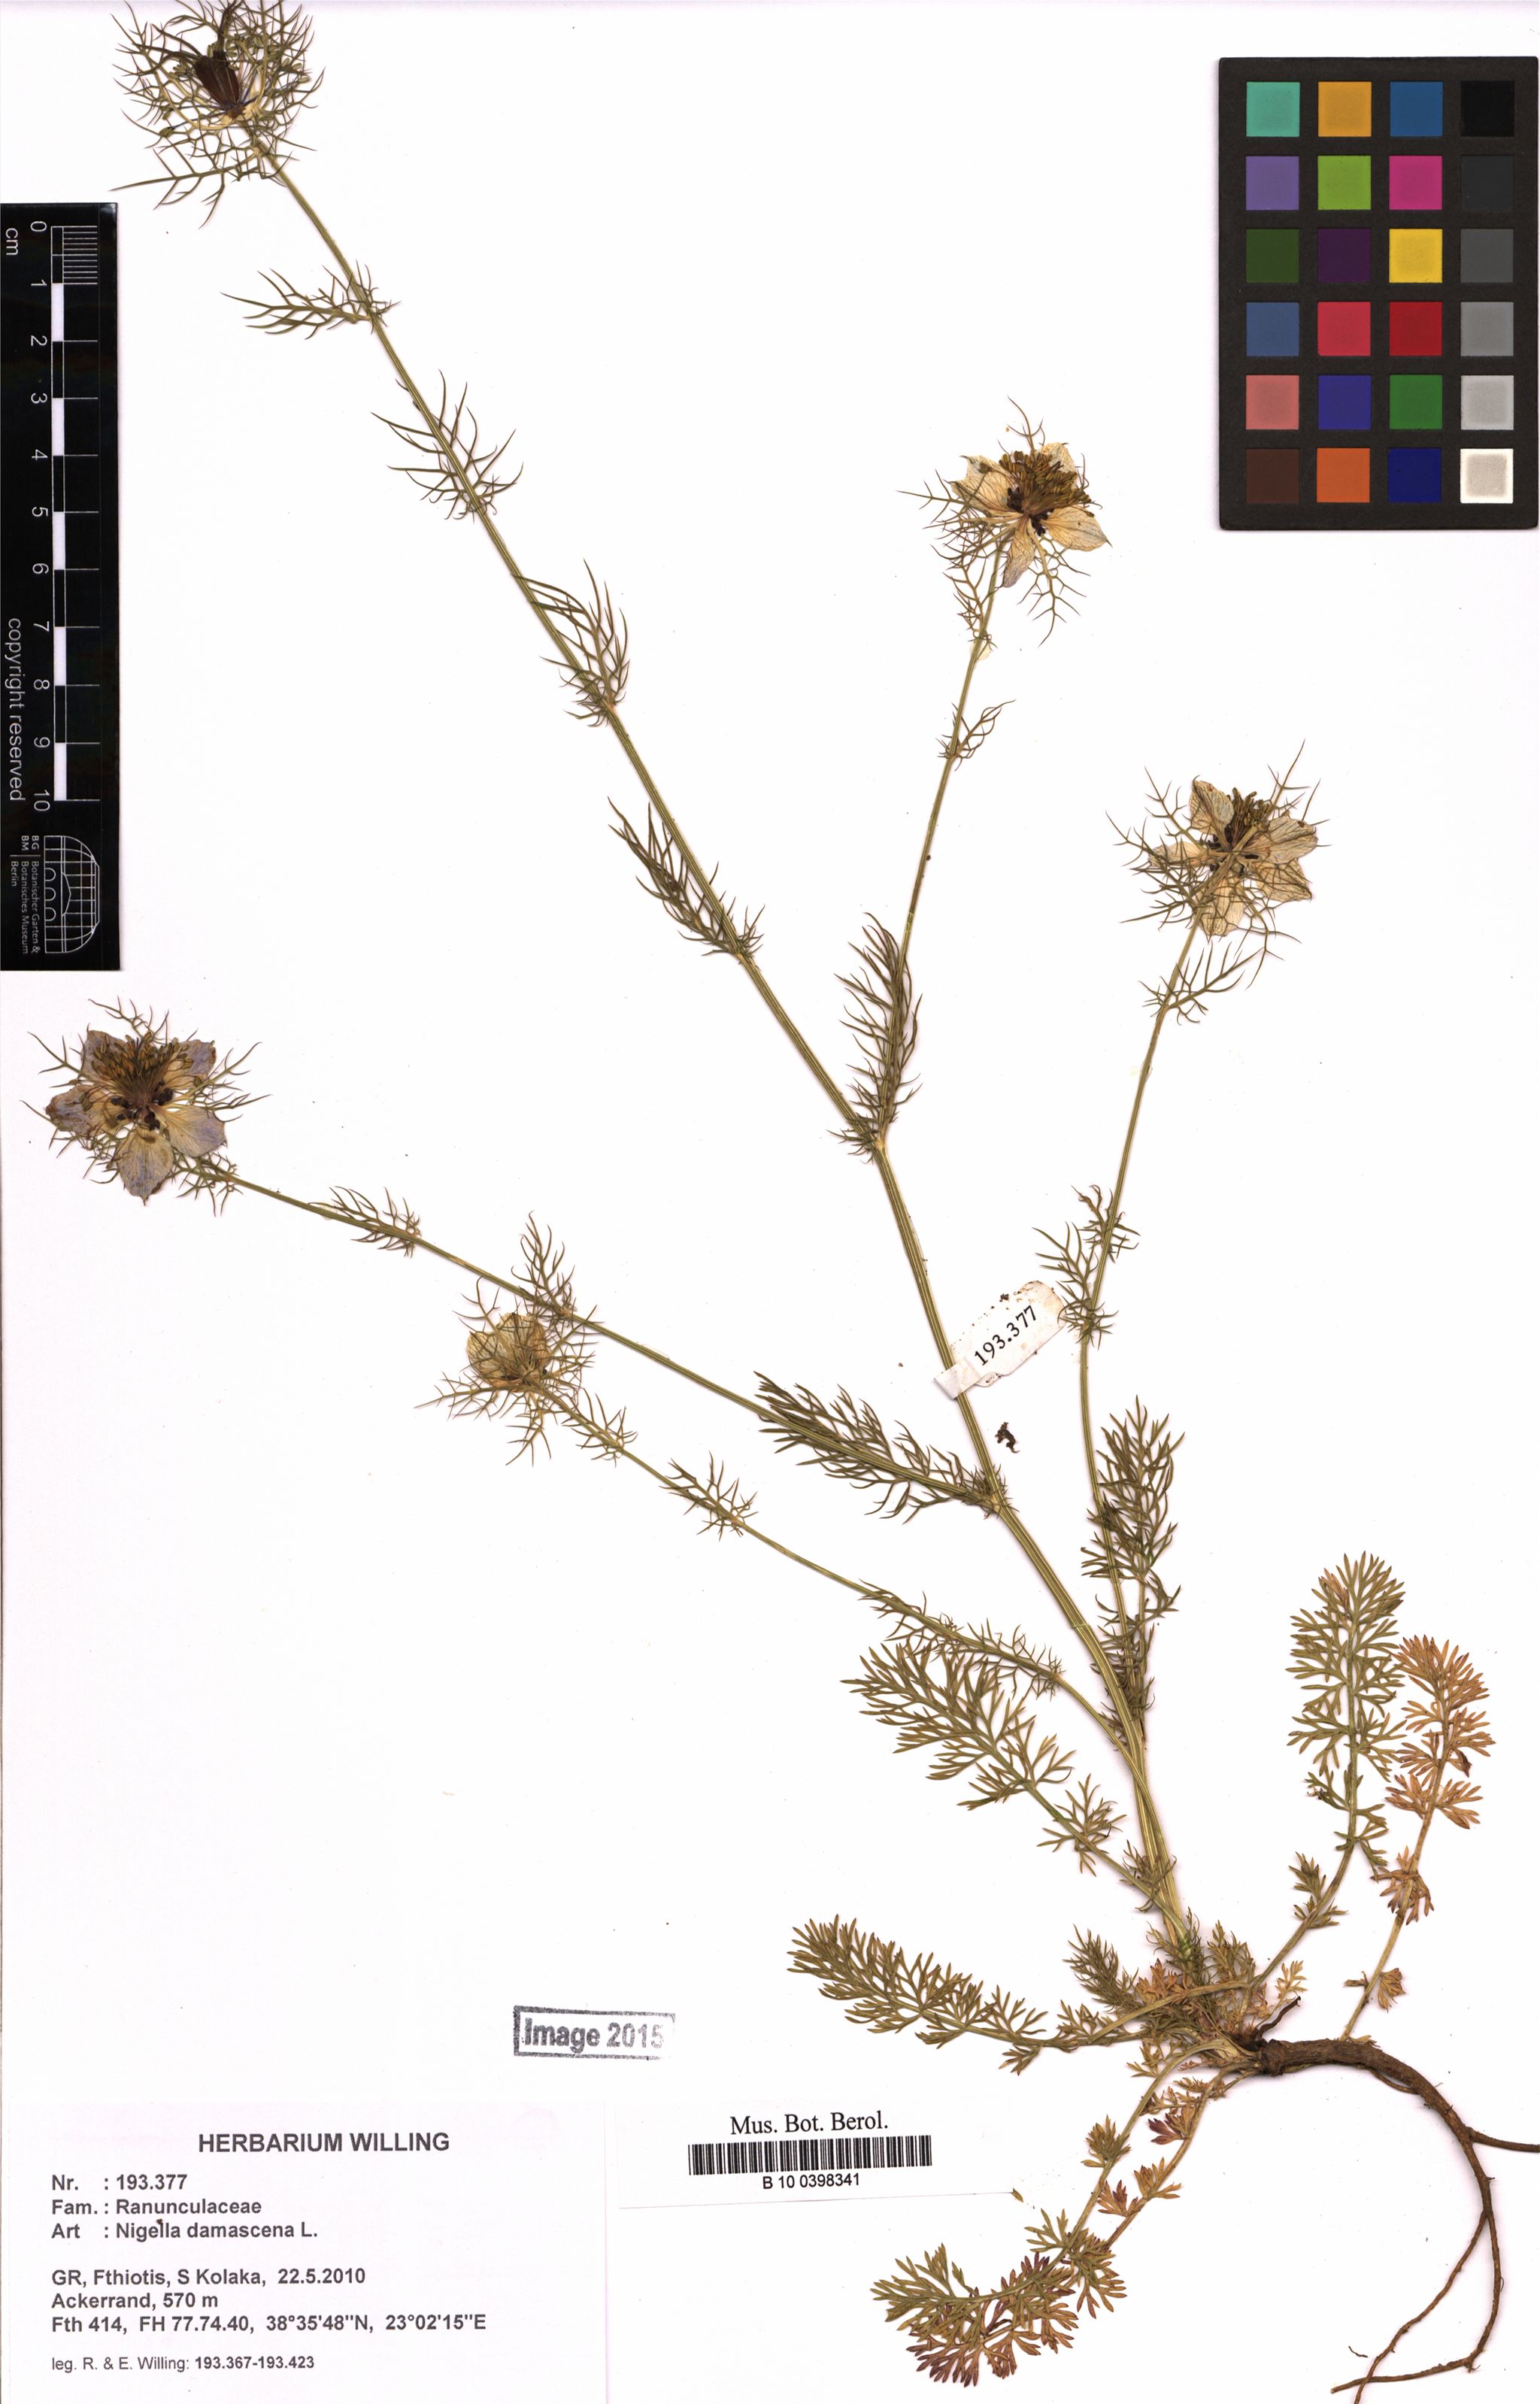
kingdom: Plantae
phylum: Tracheophyta
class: Magnoliopsida
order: Ranunculales
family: Ranunculaceae
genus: Nigella
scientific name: Nigella damascena
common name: Love-in-a-mist
